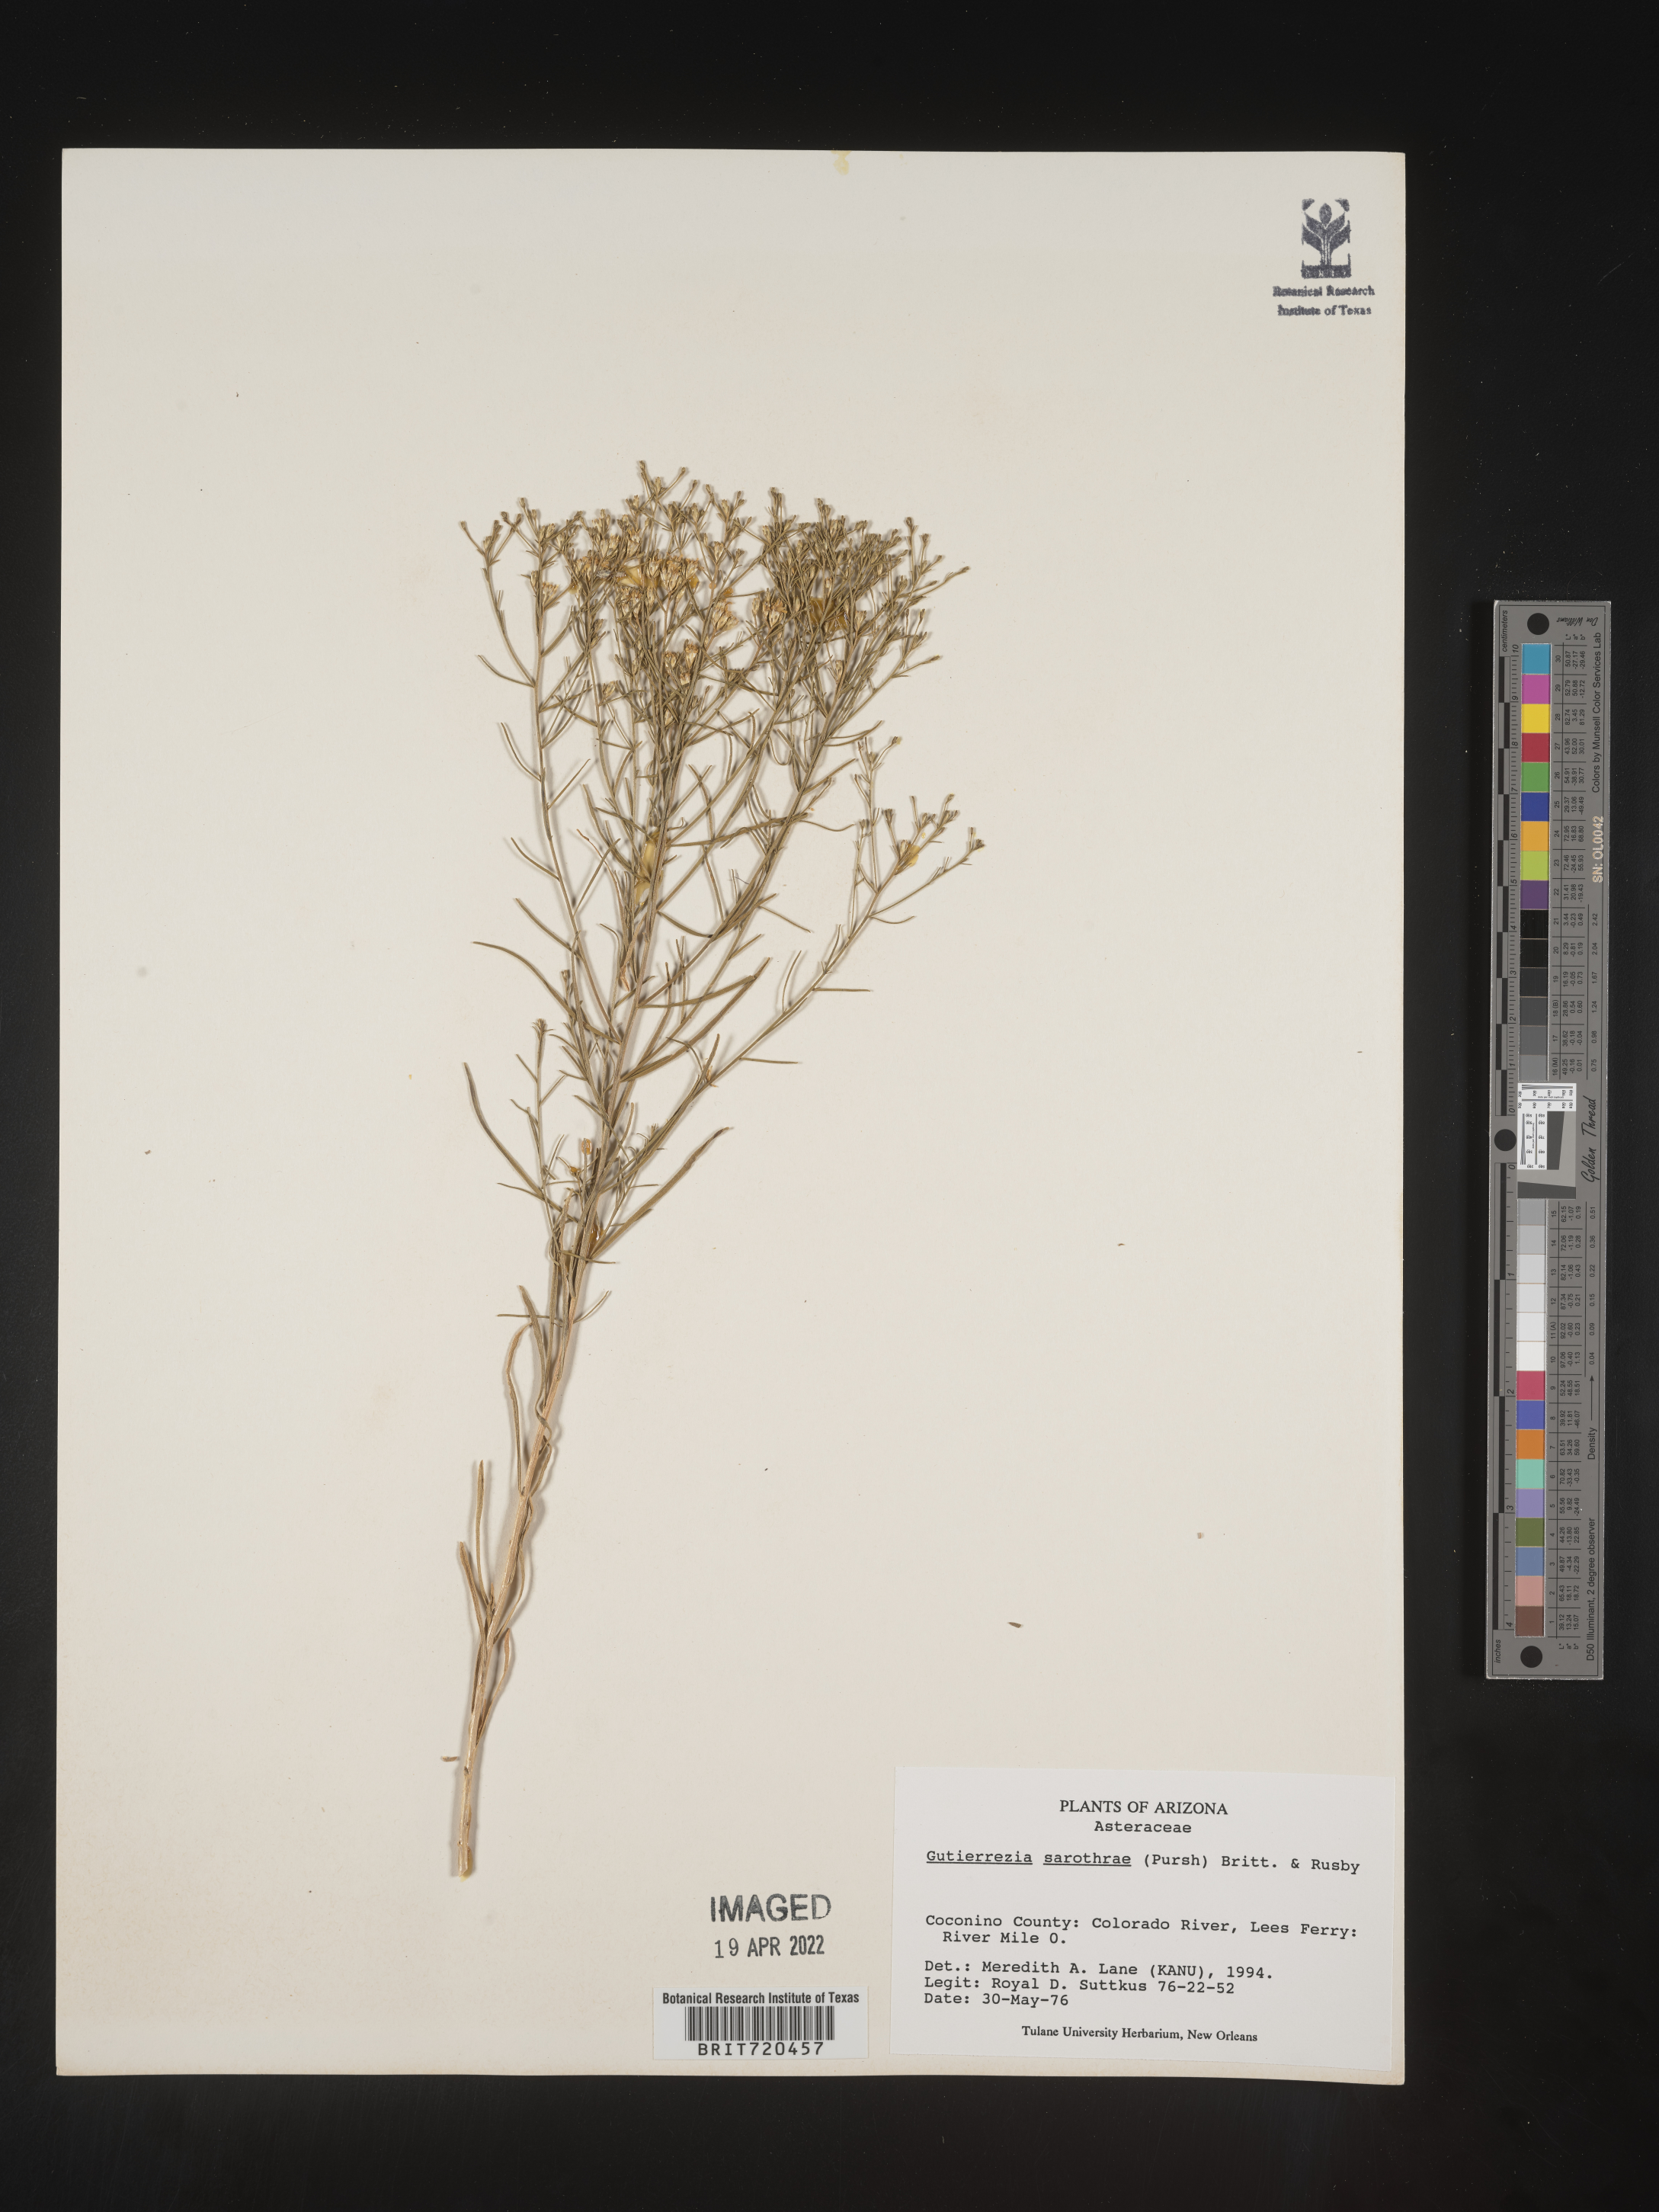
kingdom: Plantae
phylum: Tracheophyta
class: Magnoliopsida
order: Asterales
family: Asteraceae
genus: Gutierrezia
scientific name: Gutierrezia sarothrae
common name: Broom snakeweed
